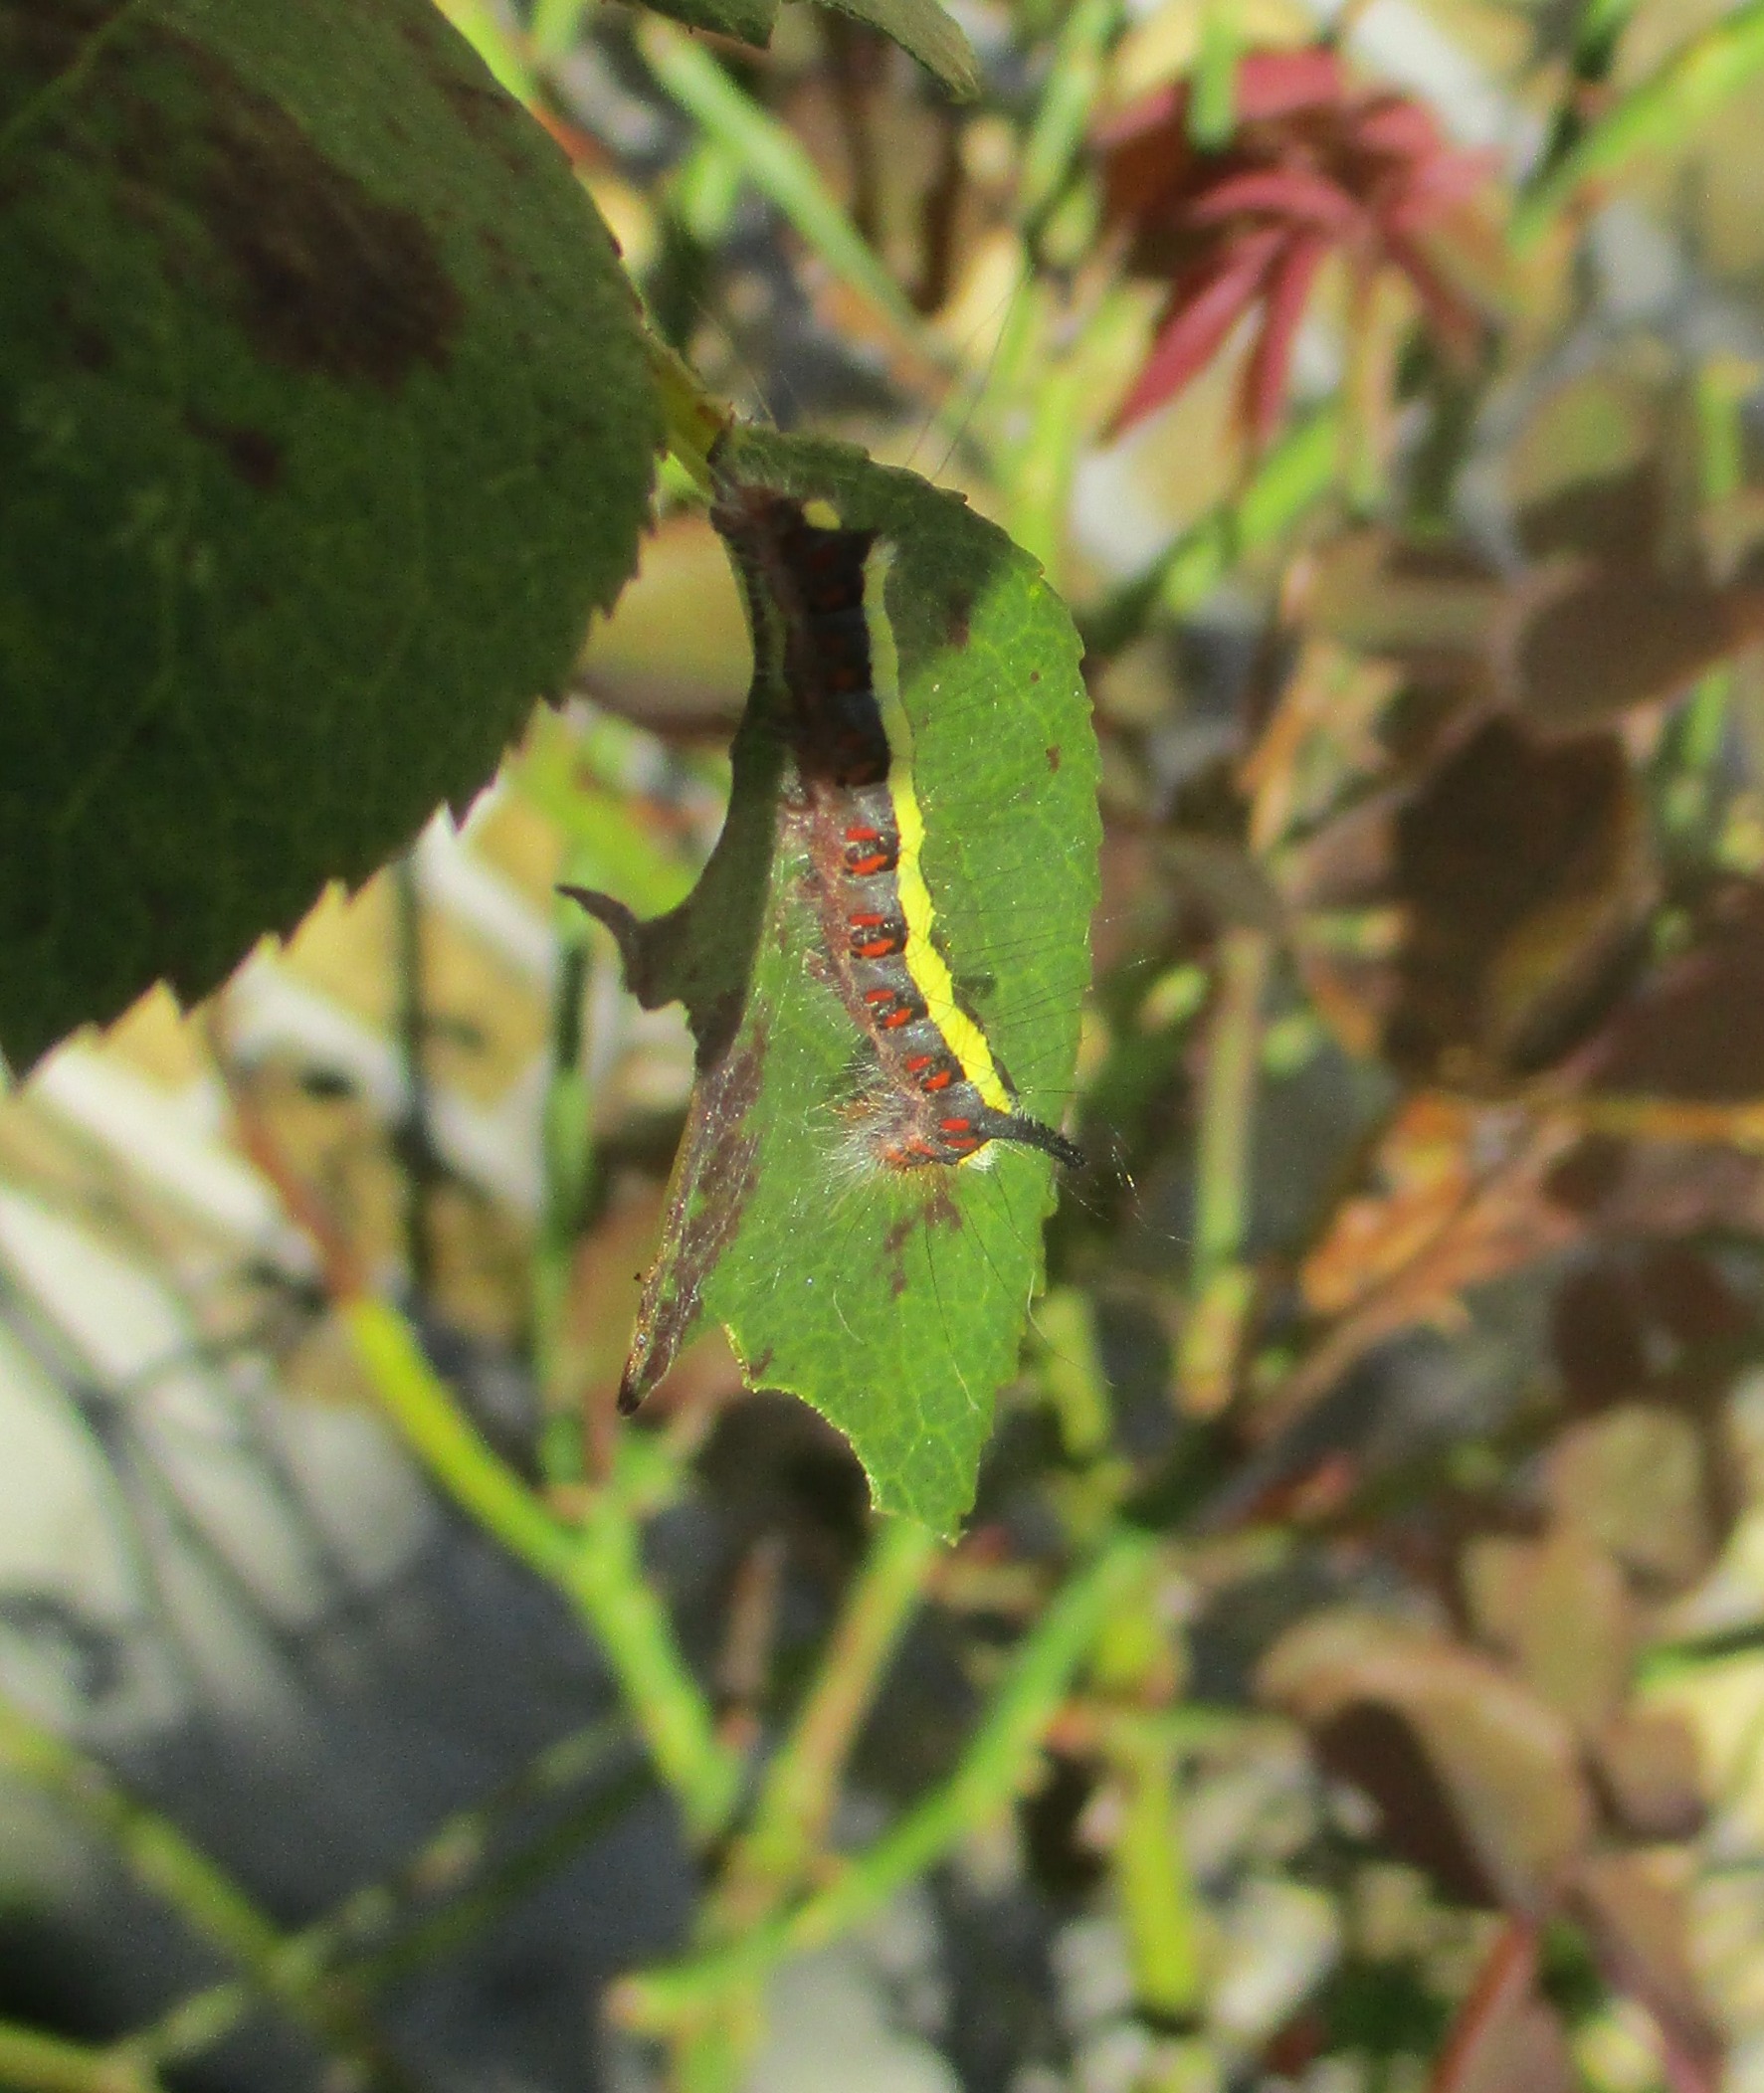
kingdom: Animalia
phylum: Arthropoda
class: Insecta
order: Lepidoptera
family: Noctuidae
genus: Acronicta
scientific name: Acronicta psi
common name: Psi-ugle
